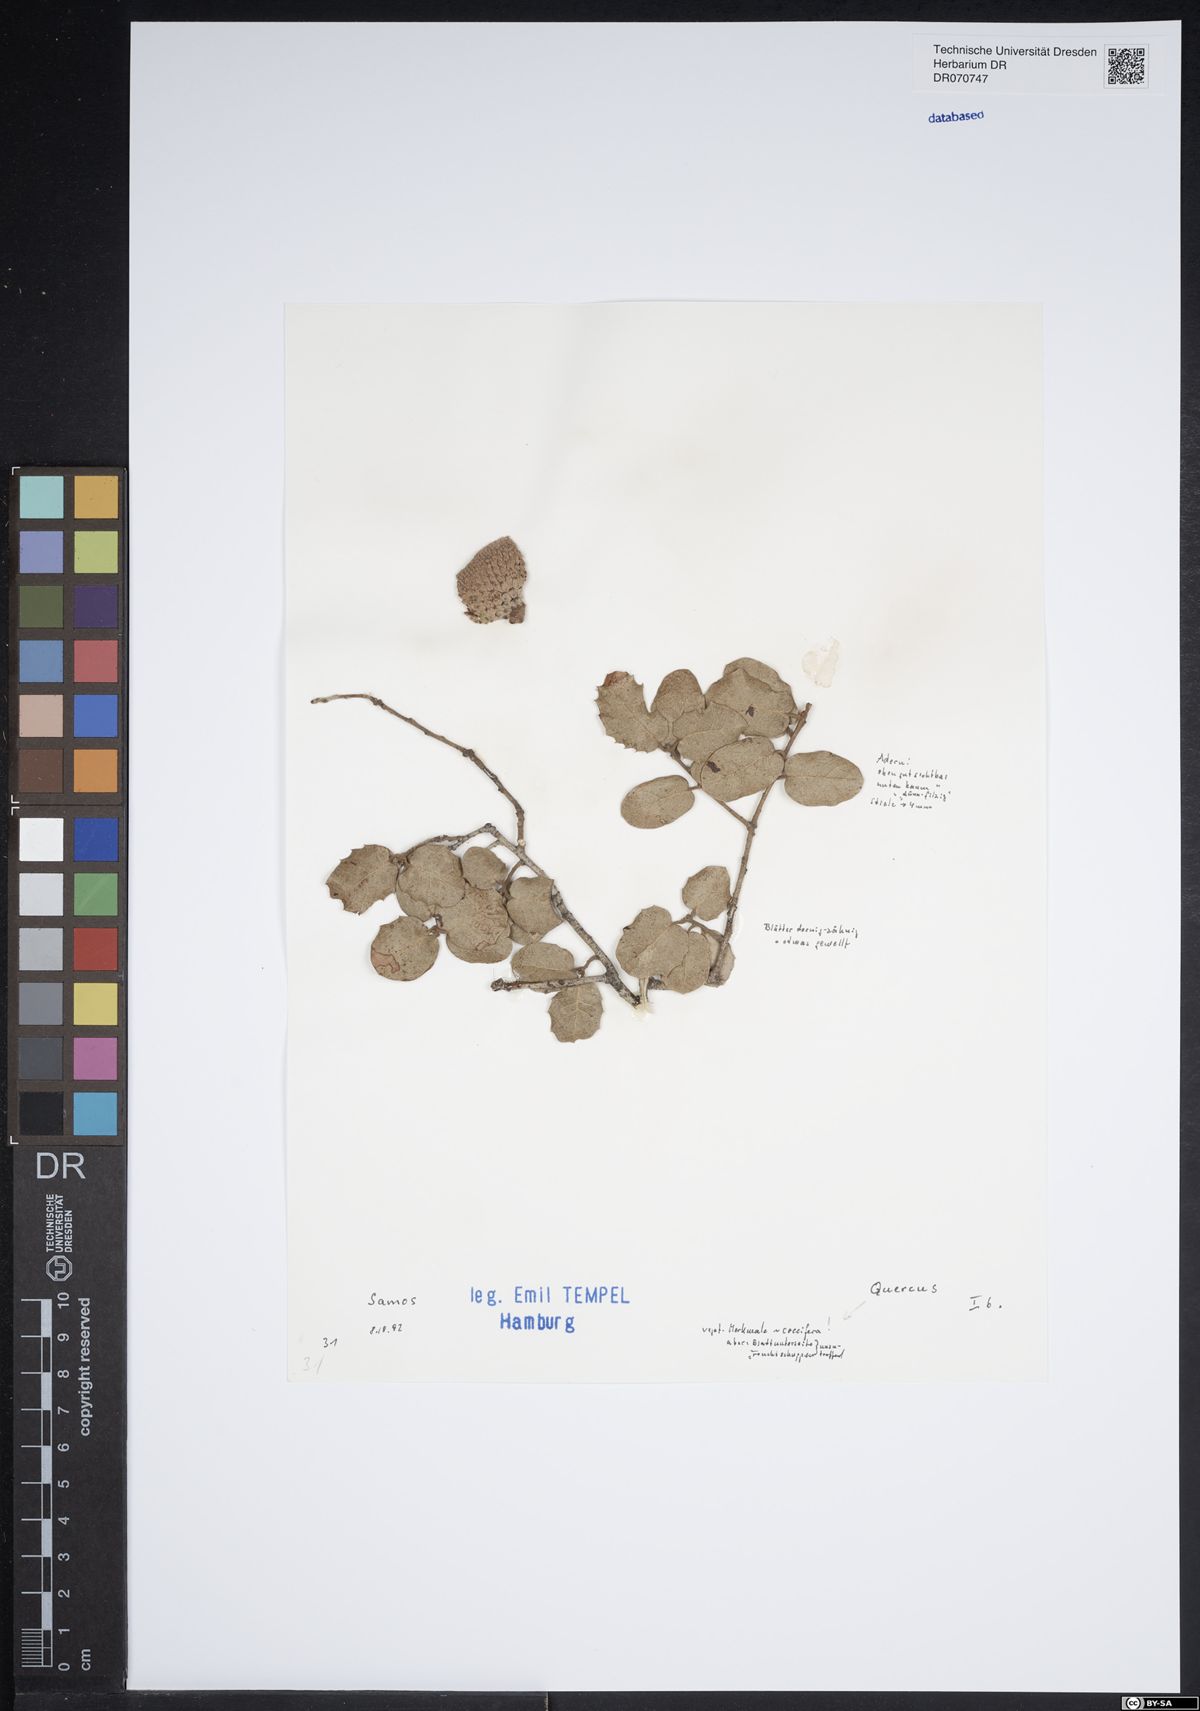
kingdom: Plantae
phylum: Tracheophyta
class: Magnoliopsida
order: Fagales
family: Fagaceae
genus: Quercus
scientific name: Quercus
